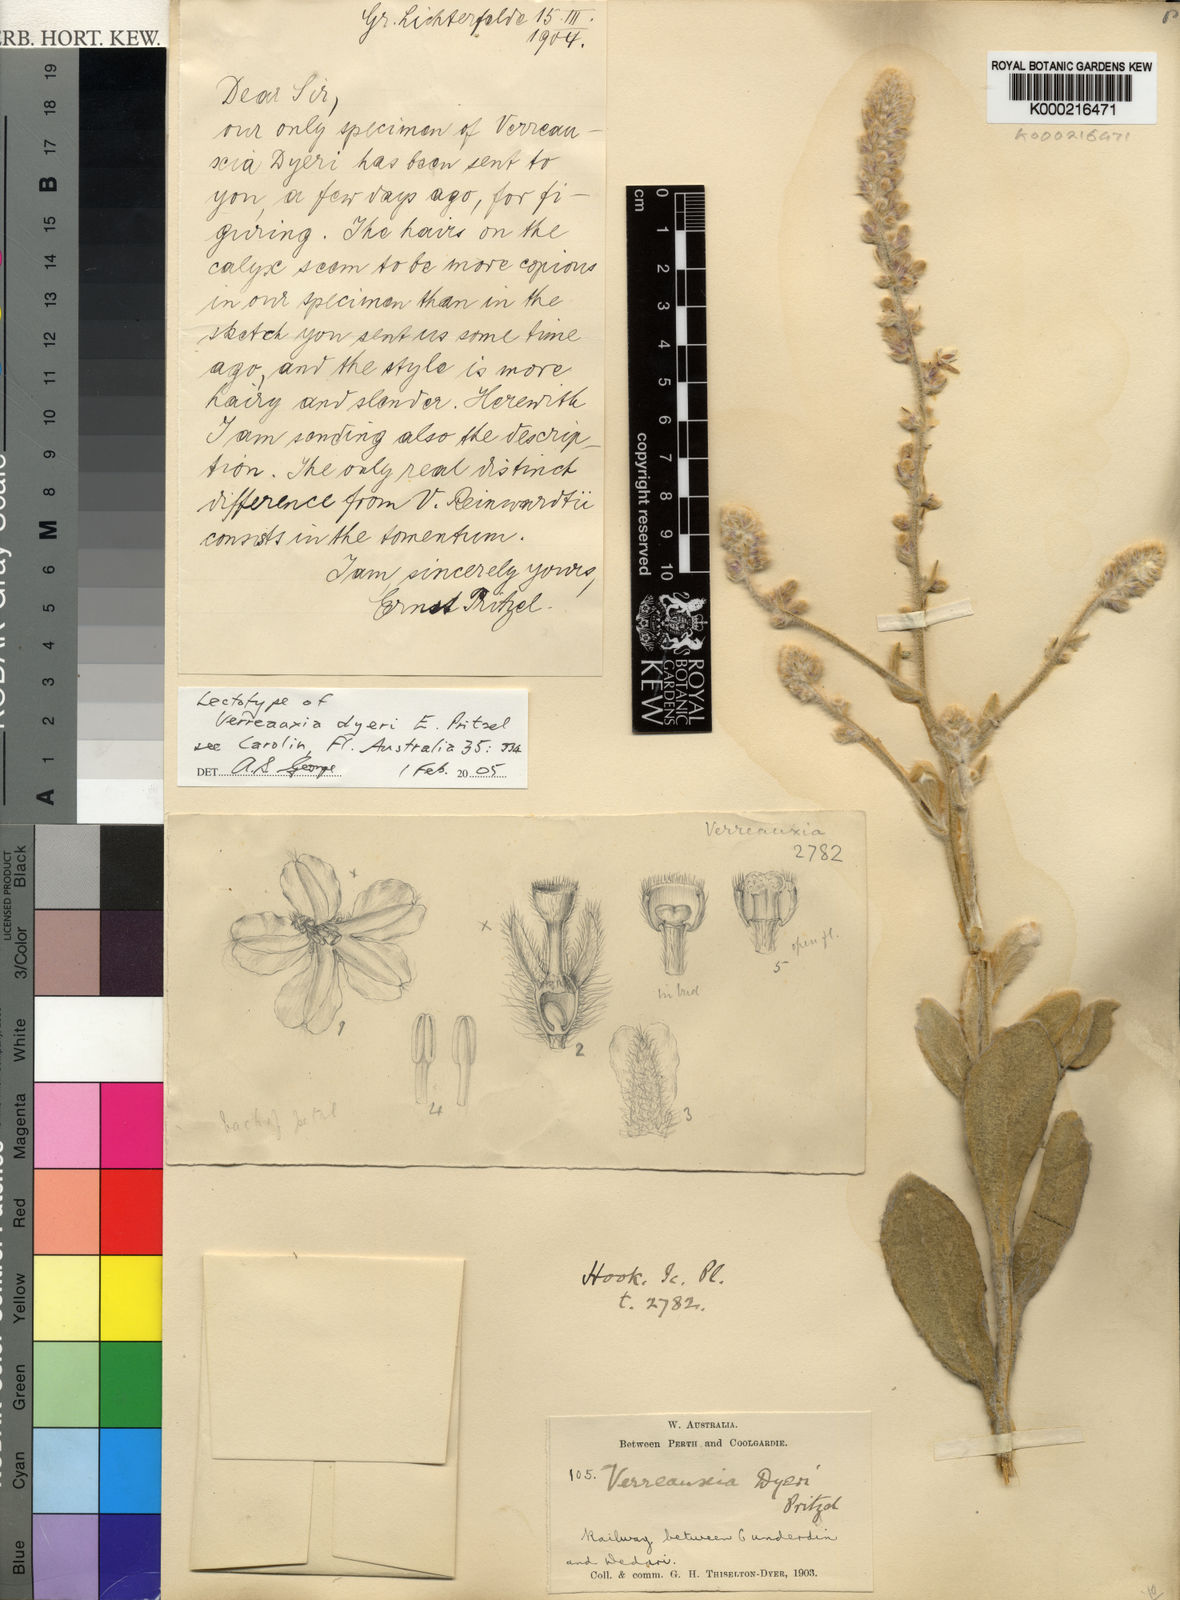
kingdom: Plantae
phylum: Tracheophyta
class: Magnoliopsida
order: Asterales
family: Goodeniaceae
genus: Goodenia
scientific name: Goodenia etheira
